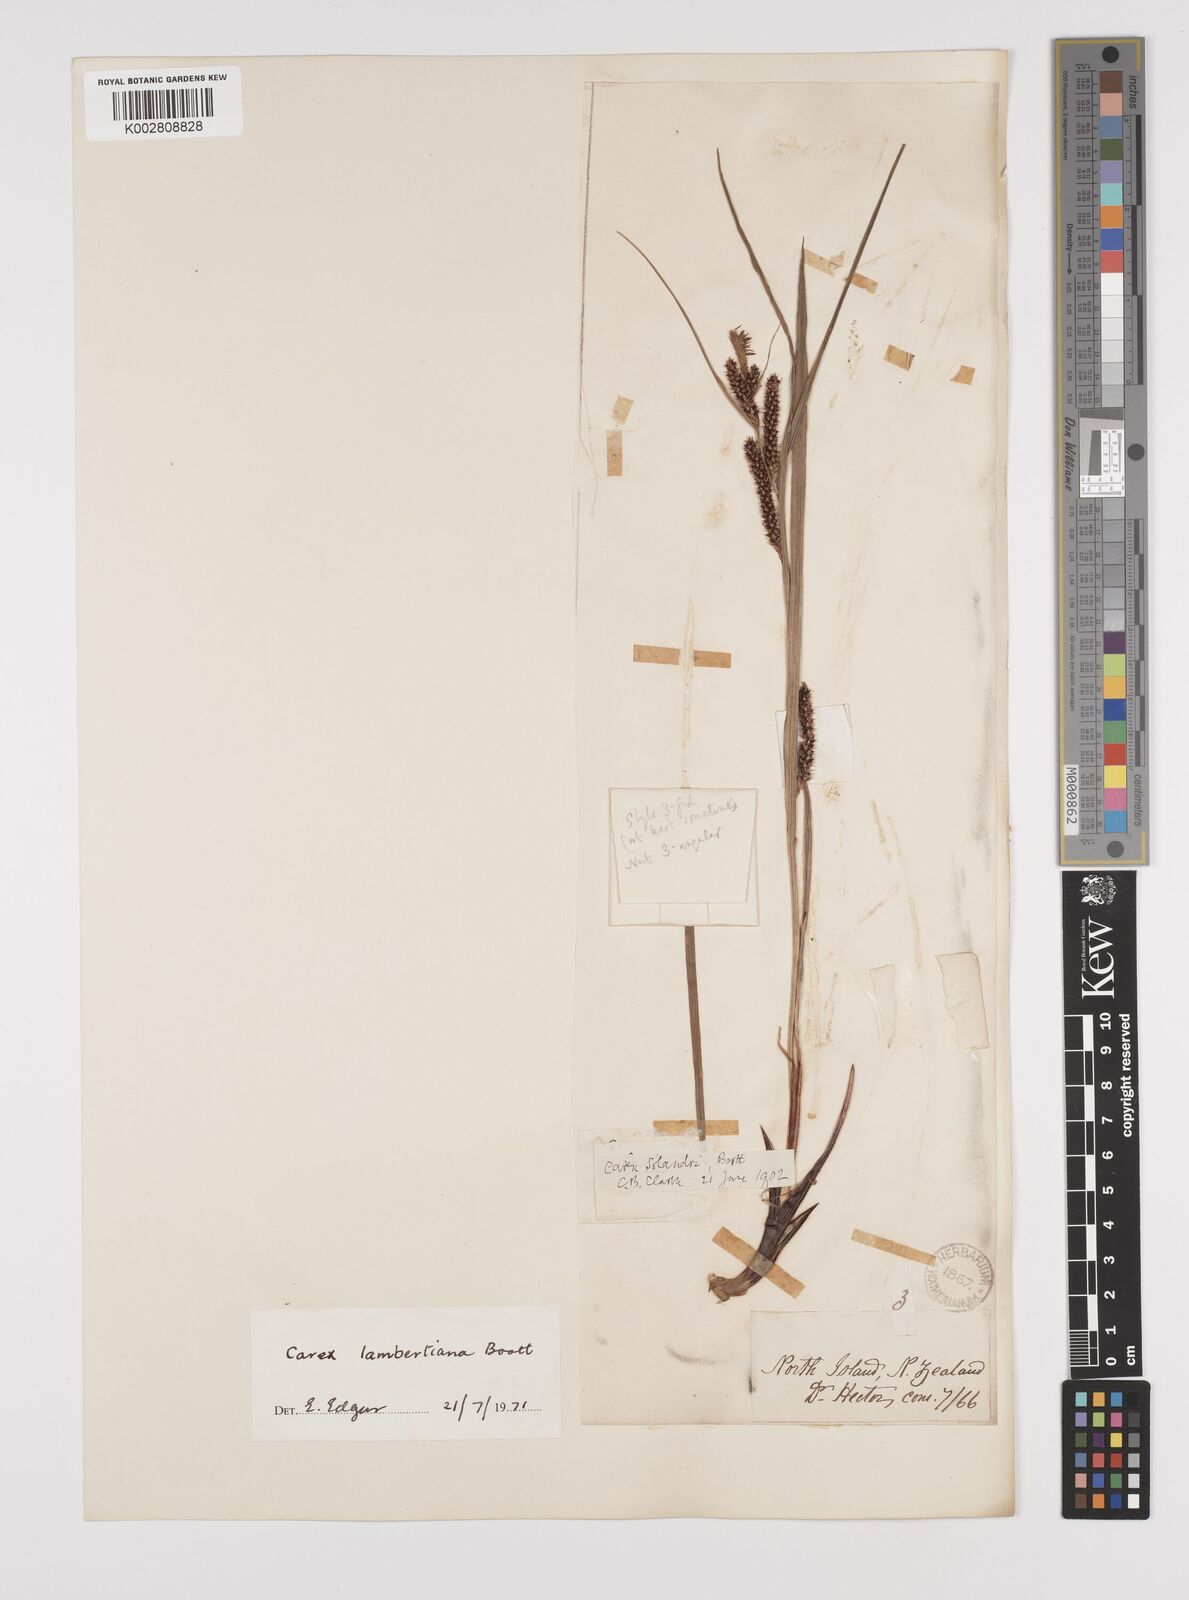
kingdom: Plantae
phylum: Tracheophyta
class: Liliopsida
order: Poales
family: Cyperaceae
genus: Carex
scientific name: Carex dissita
